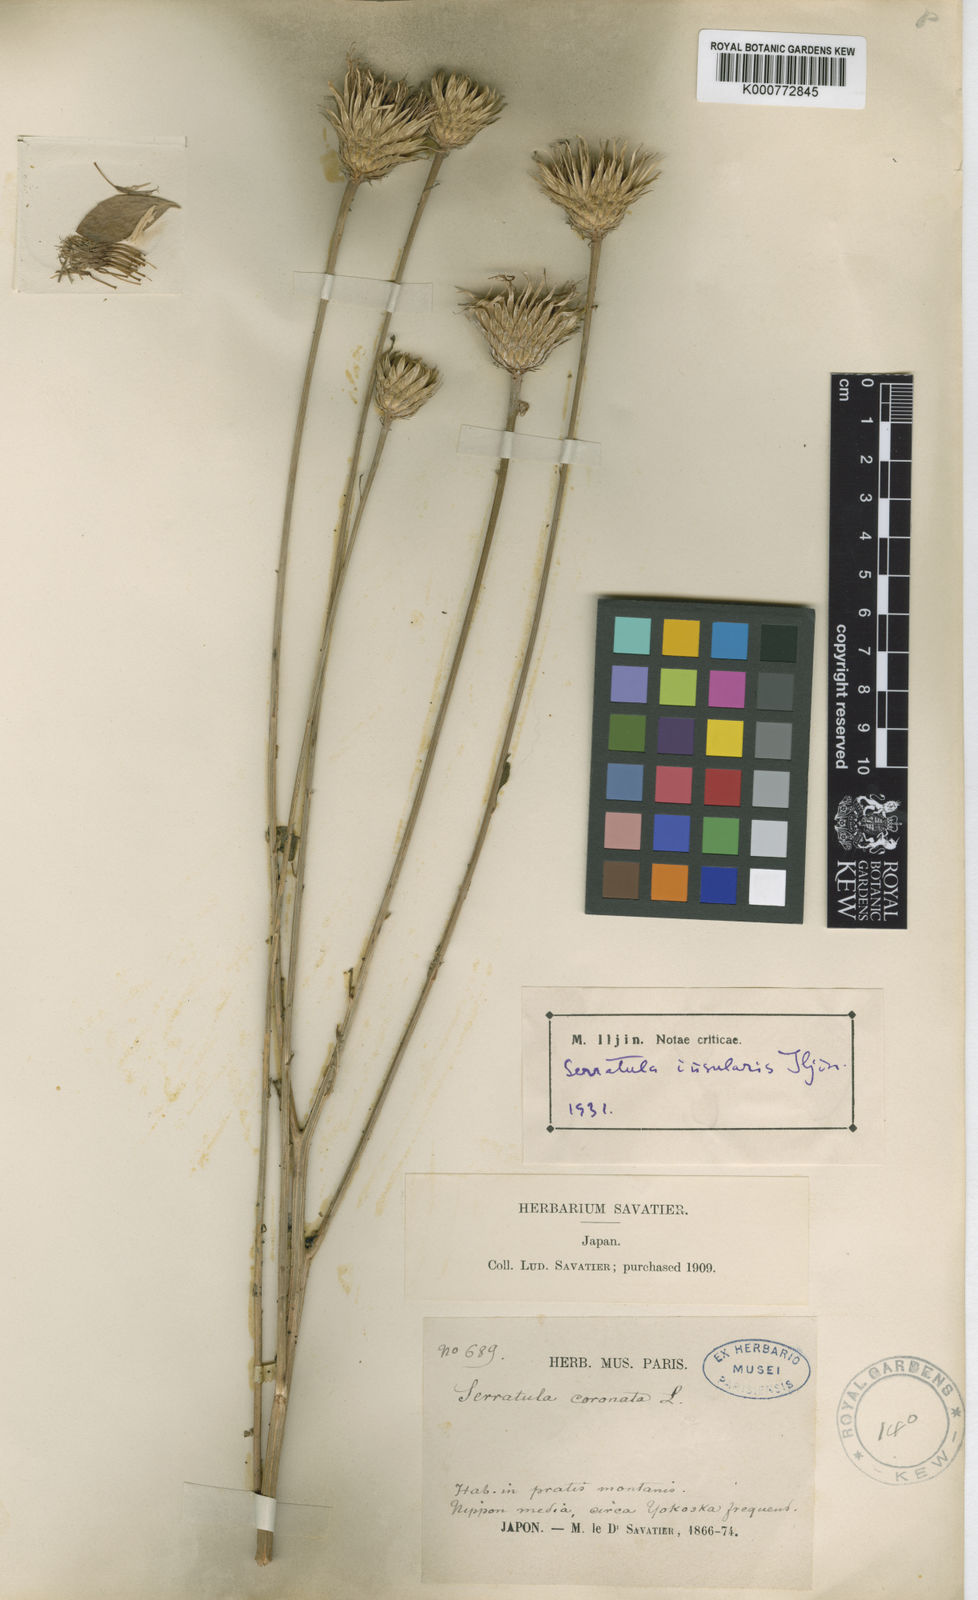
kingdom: Plantae
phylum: Tracheophyta
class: Magnoliopsida
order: Asterales
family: Asteraceae
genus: Serratula
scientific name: Serratula coronata
